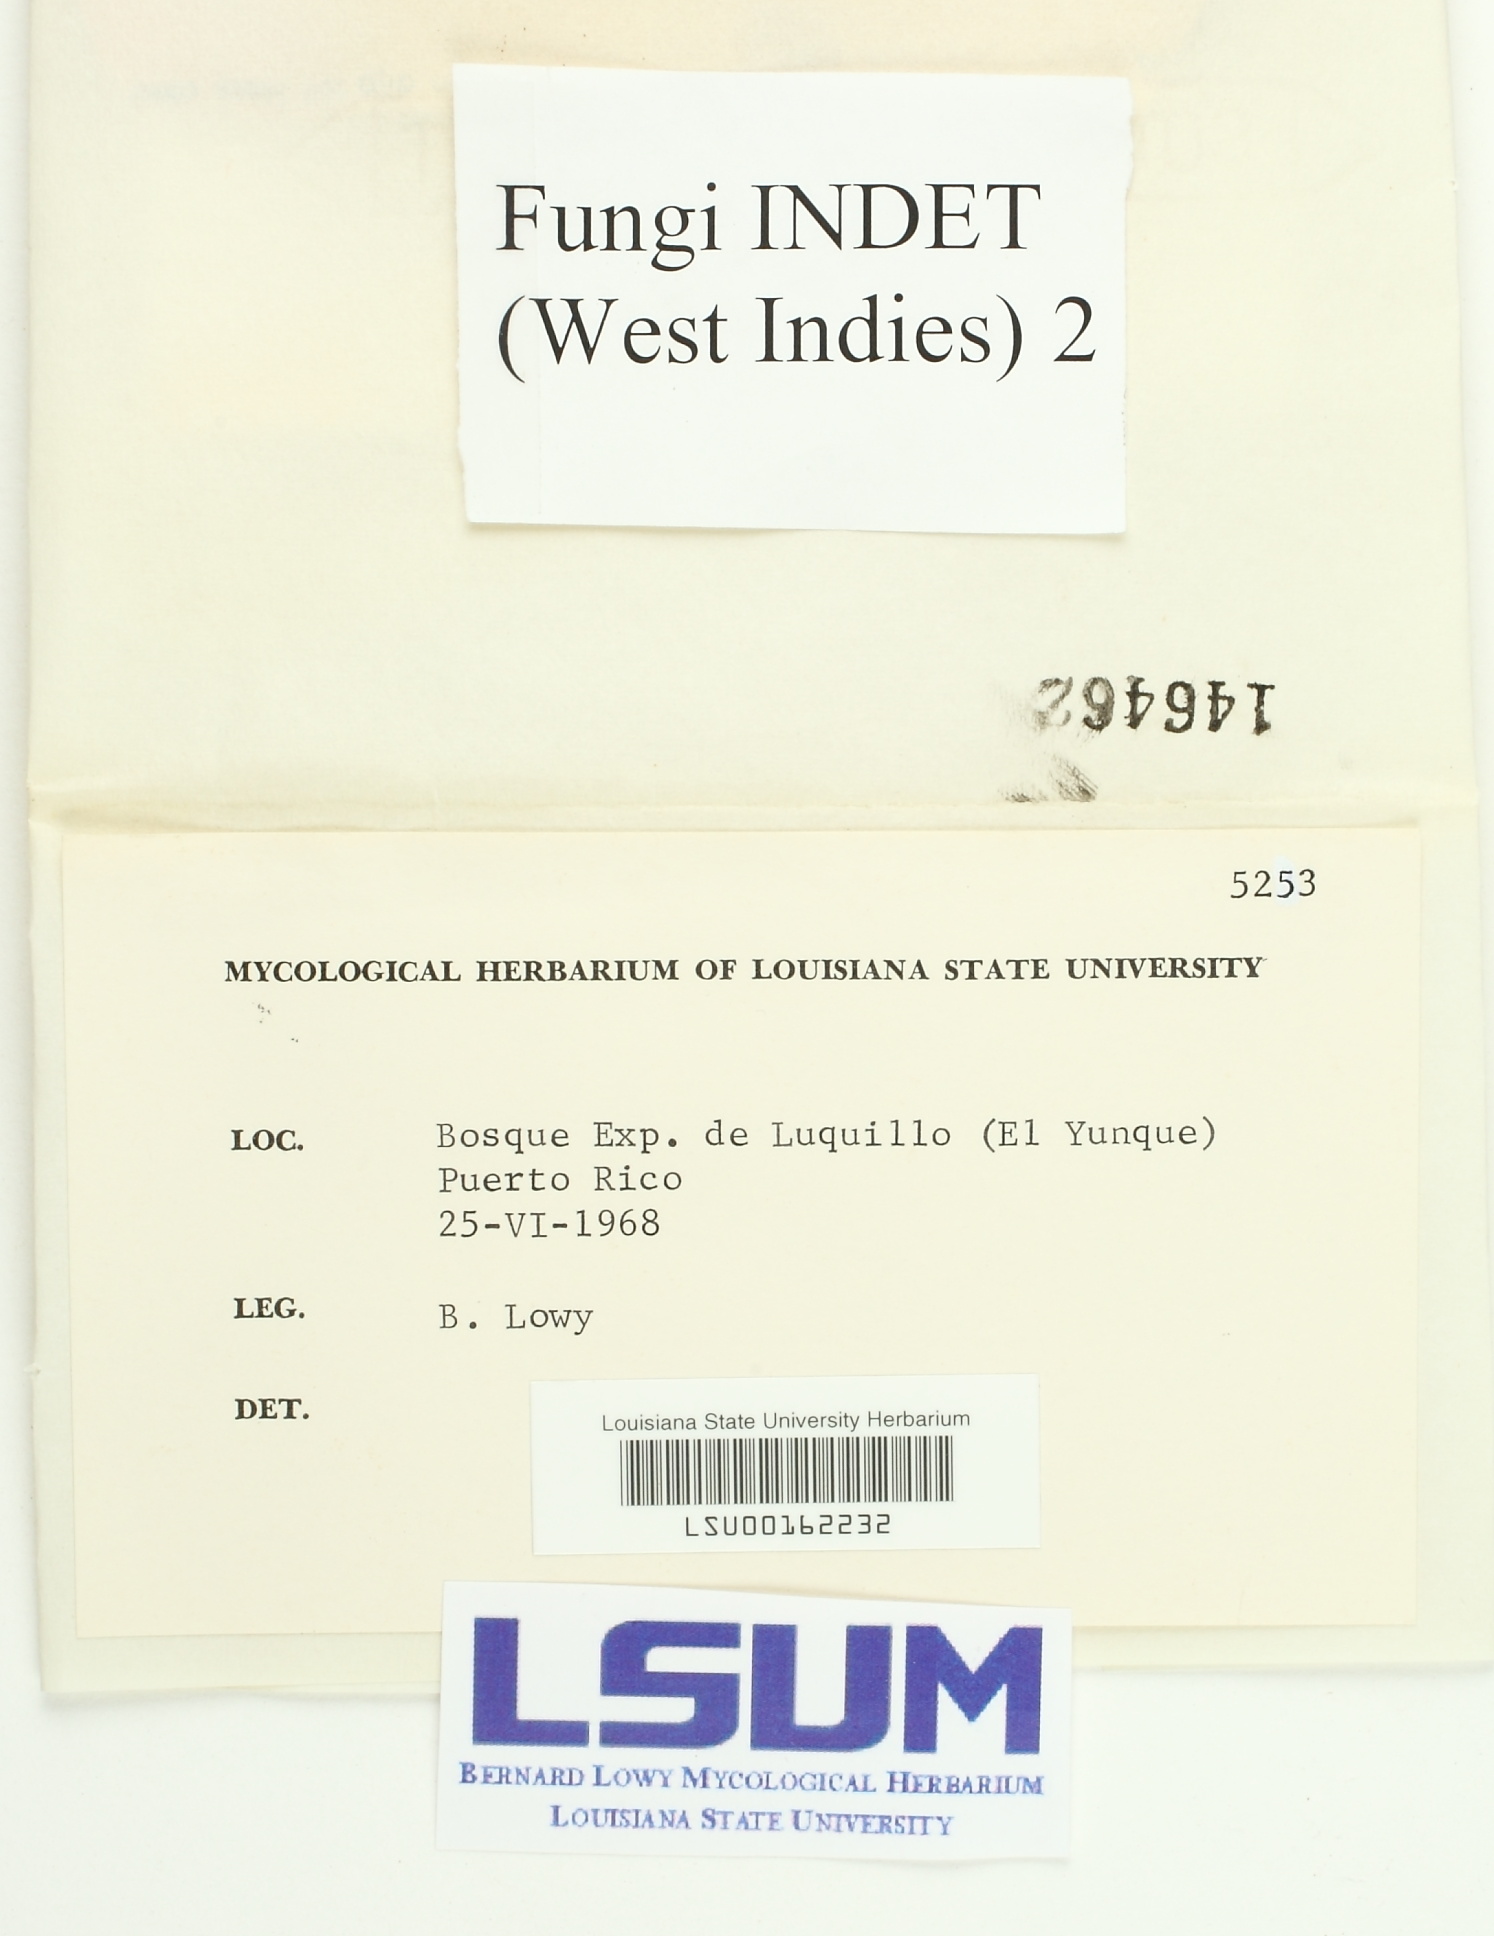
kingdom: Fungi
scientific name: Fungi
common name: Fungi
